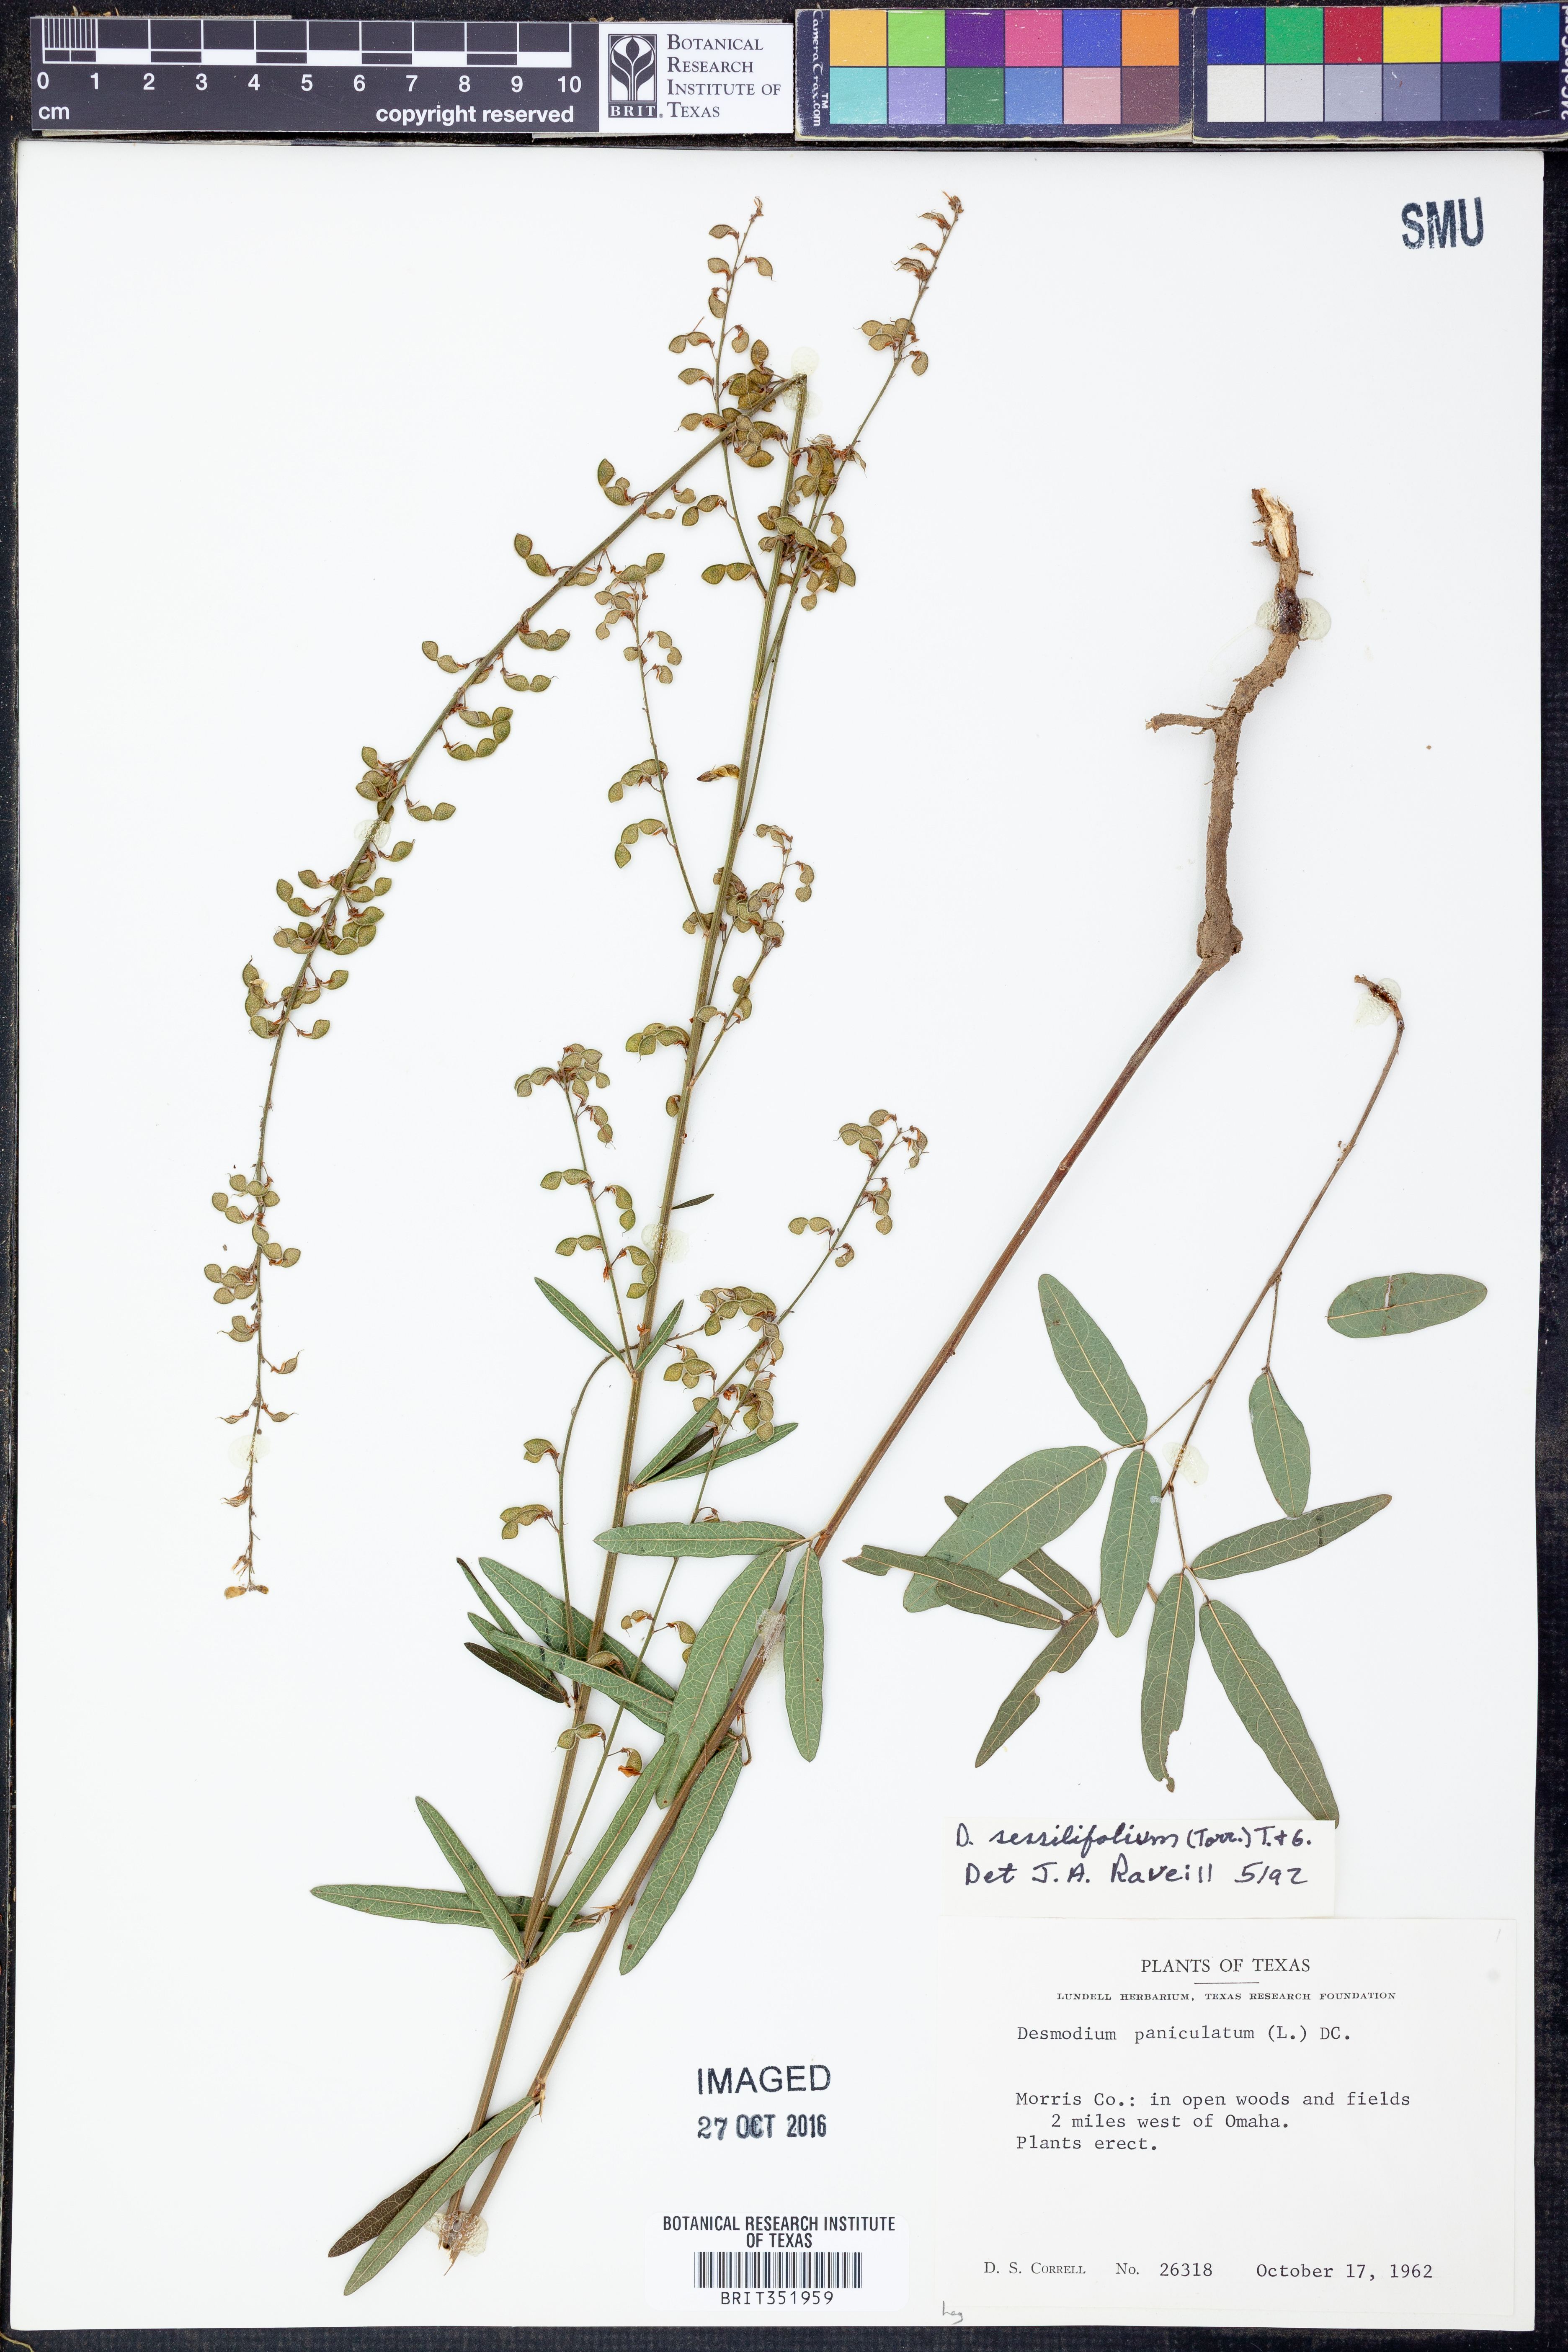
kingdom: Plantae
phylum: Tracheophyta
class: Magnoliopsida
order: Fabales
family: Fabaceae
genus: Desmodium
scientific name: Desmodium sessilifolium
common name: Sessile tick-clover
